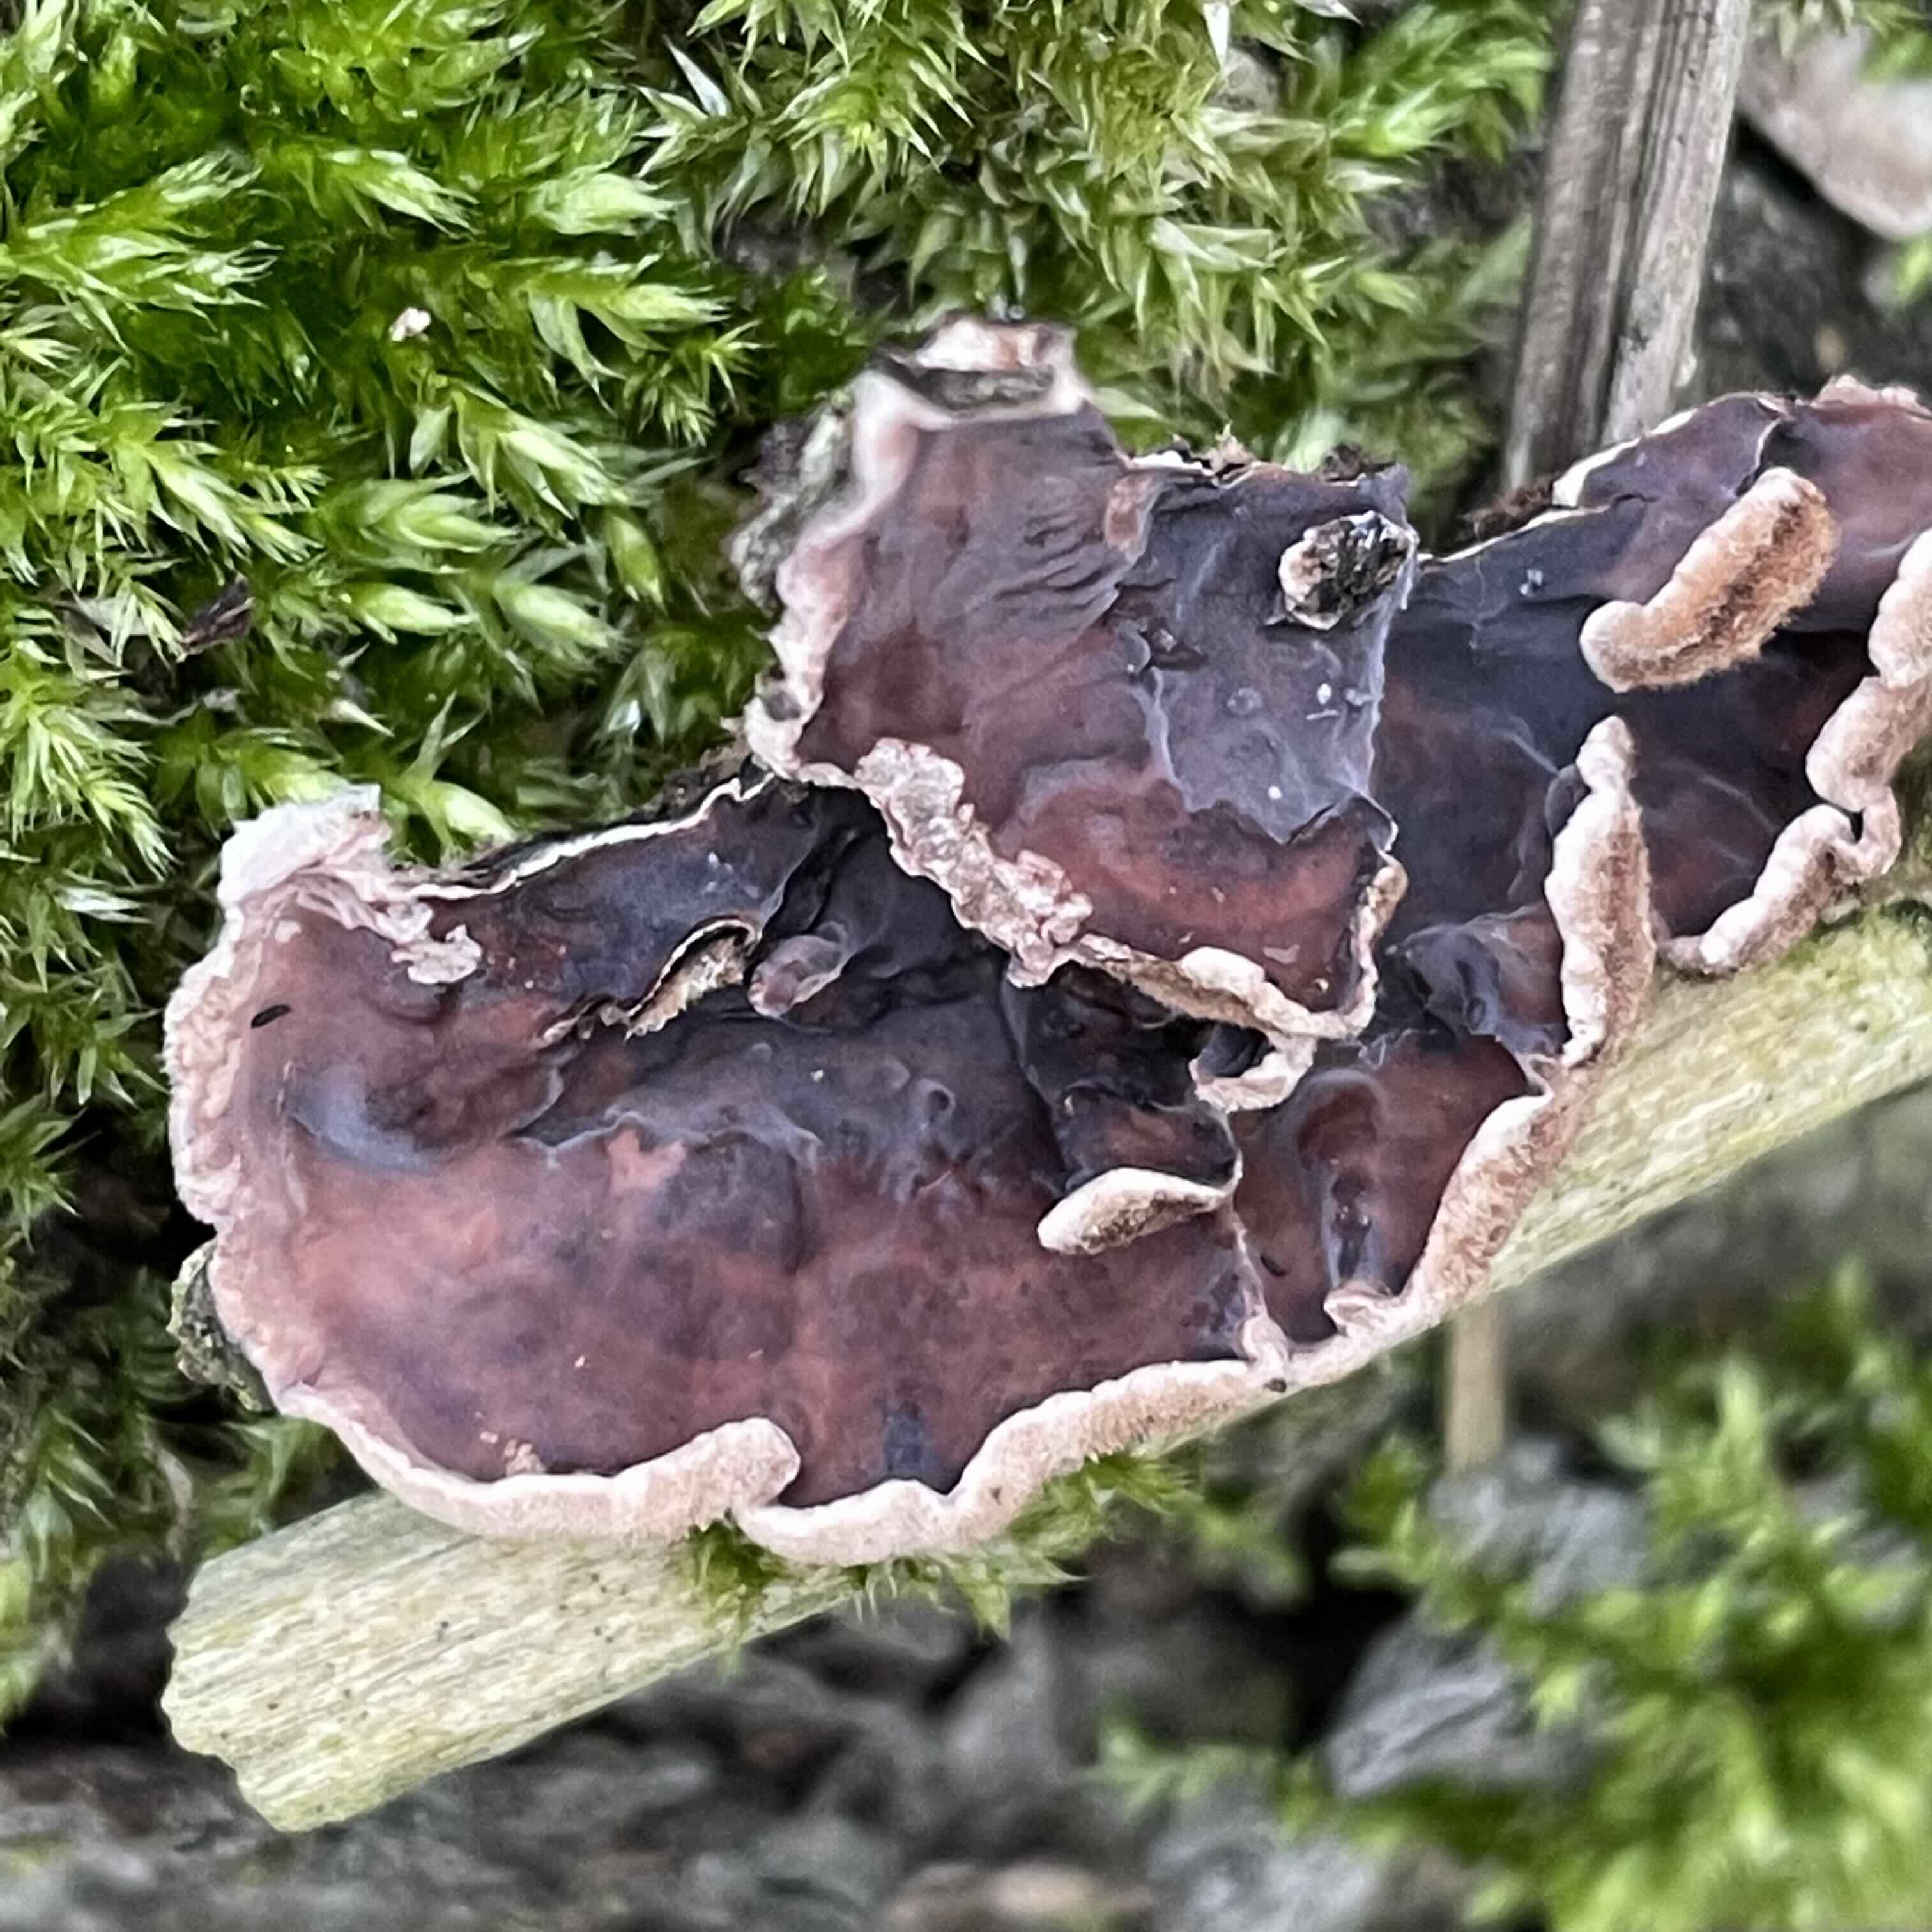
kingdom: Fungi
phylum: Basidiomycota
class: Agaricomycetes
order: Agaricales
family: Cyphellaceae
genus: Chondrostereum
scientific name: Chondrostereum purpureum
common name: purpurlædersvamp
